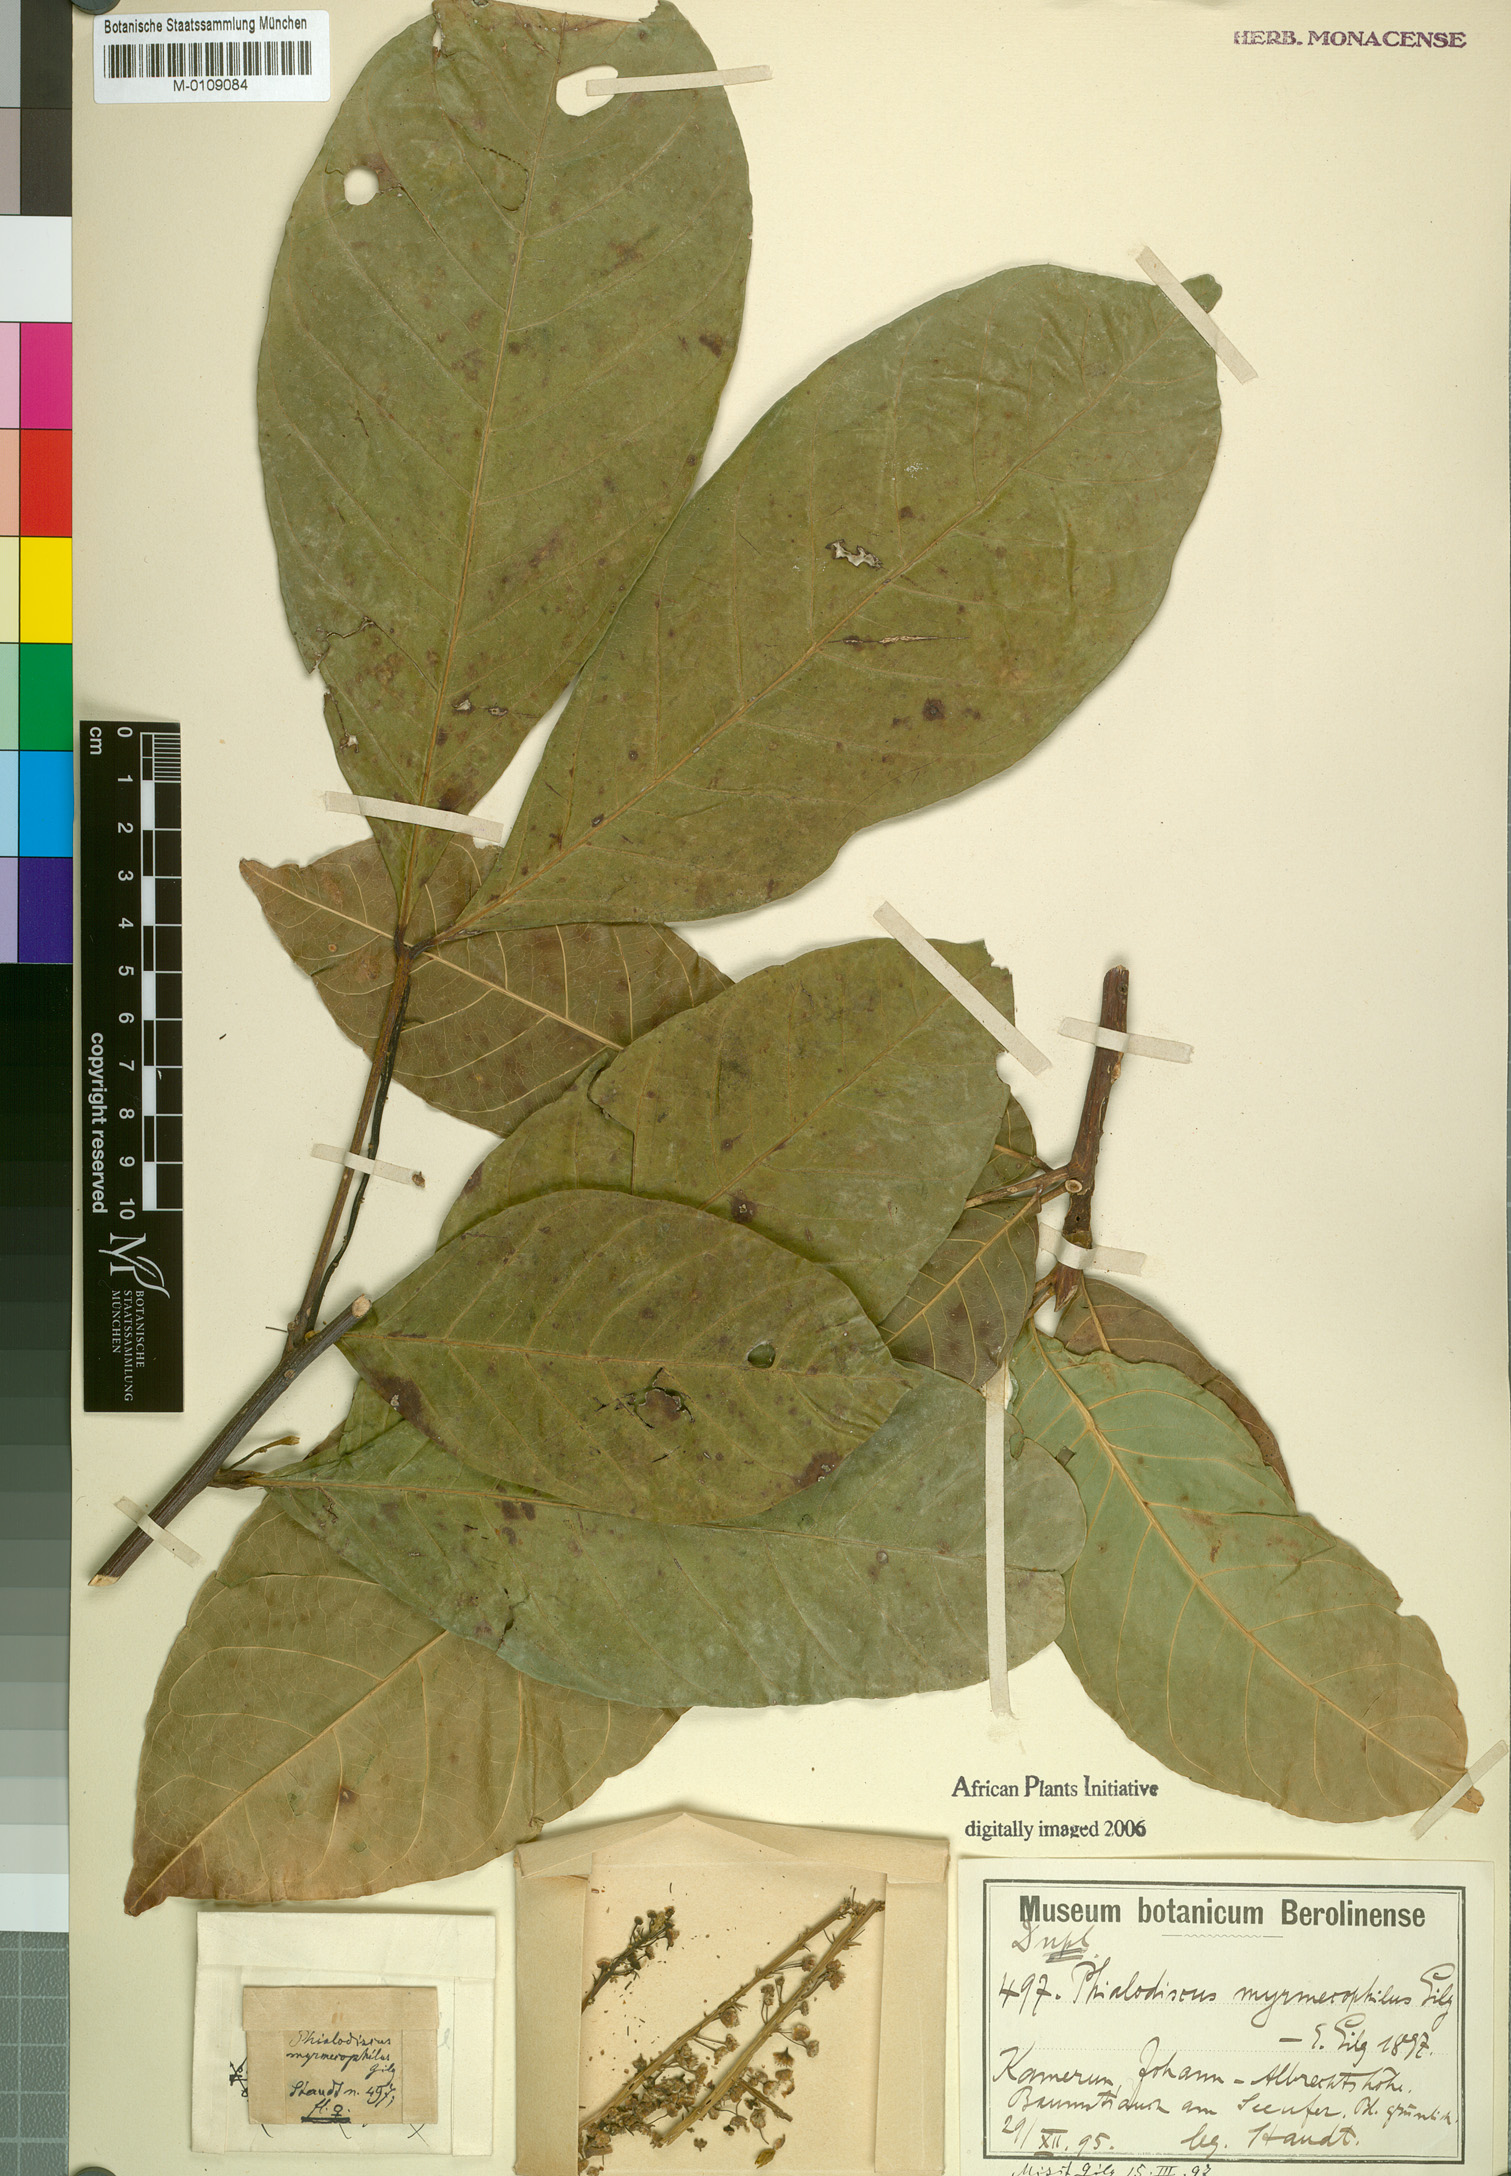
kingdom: Plantae
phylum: Tracheophyta
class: Magnoliopsida
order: Sapindales
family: Sapindaceae
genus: Blighia
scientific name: Blighia
